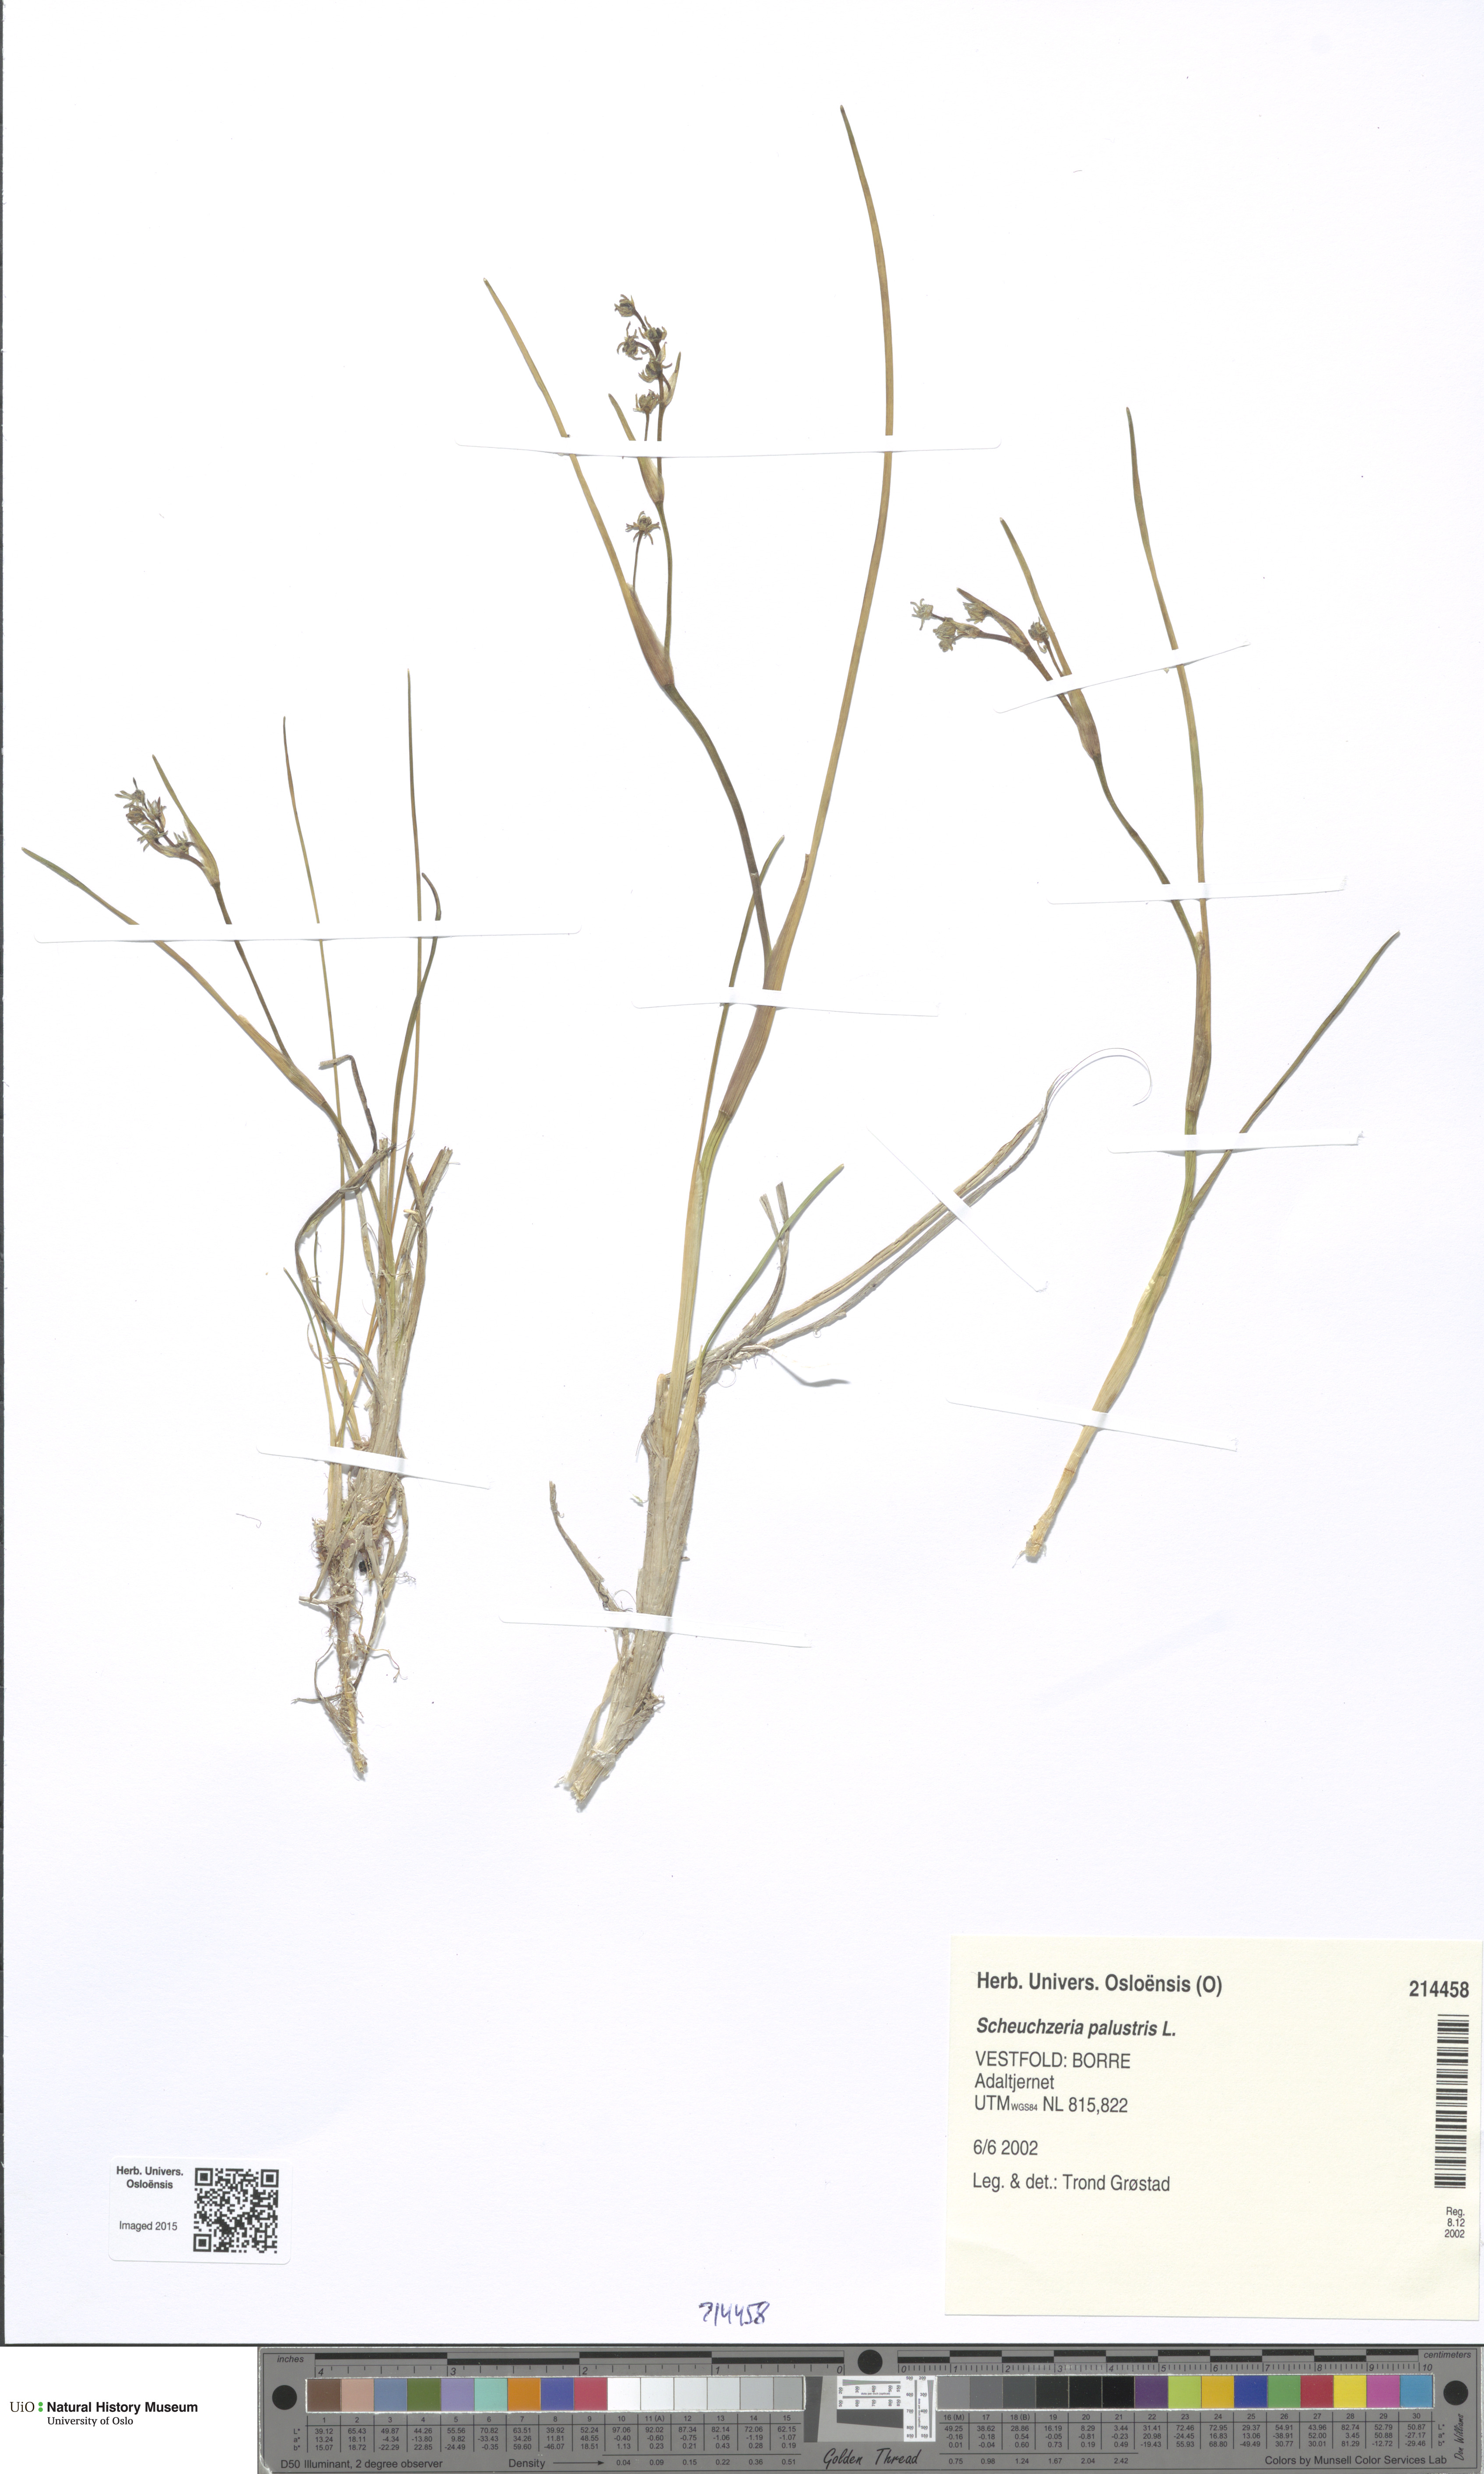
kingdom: Plantae
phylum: Tracheophyta
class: Liliopsida
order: Alismatales
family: Scheuchzeriaceae
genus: Scheuchzeria
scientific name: Scheuchzeria palustris
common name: Rannoch-rush
